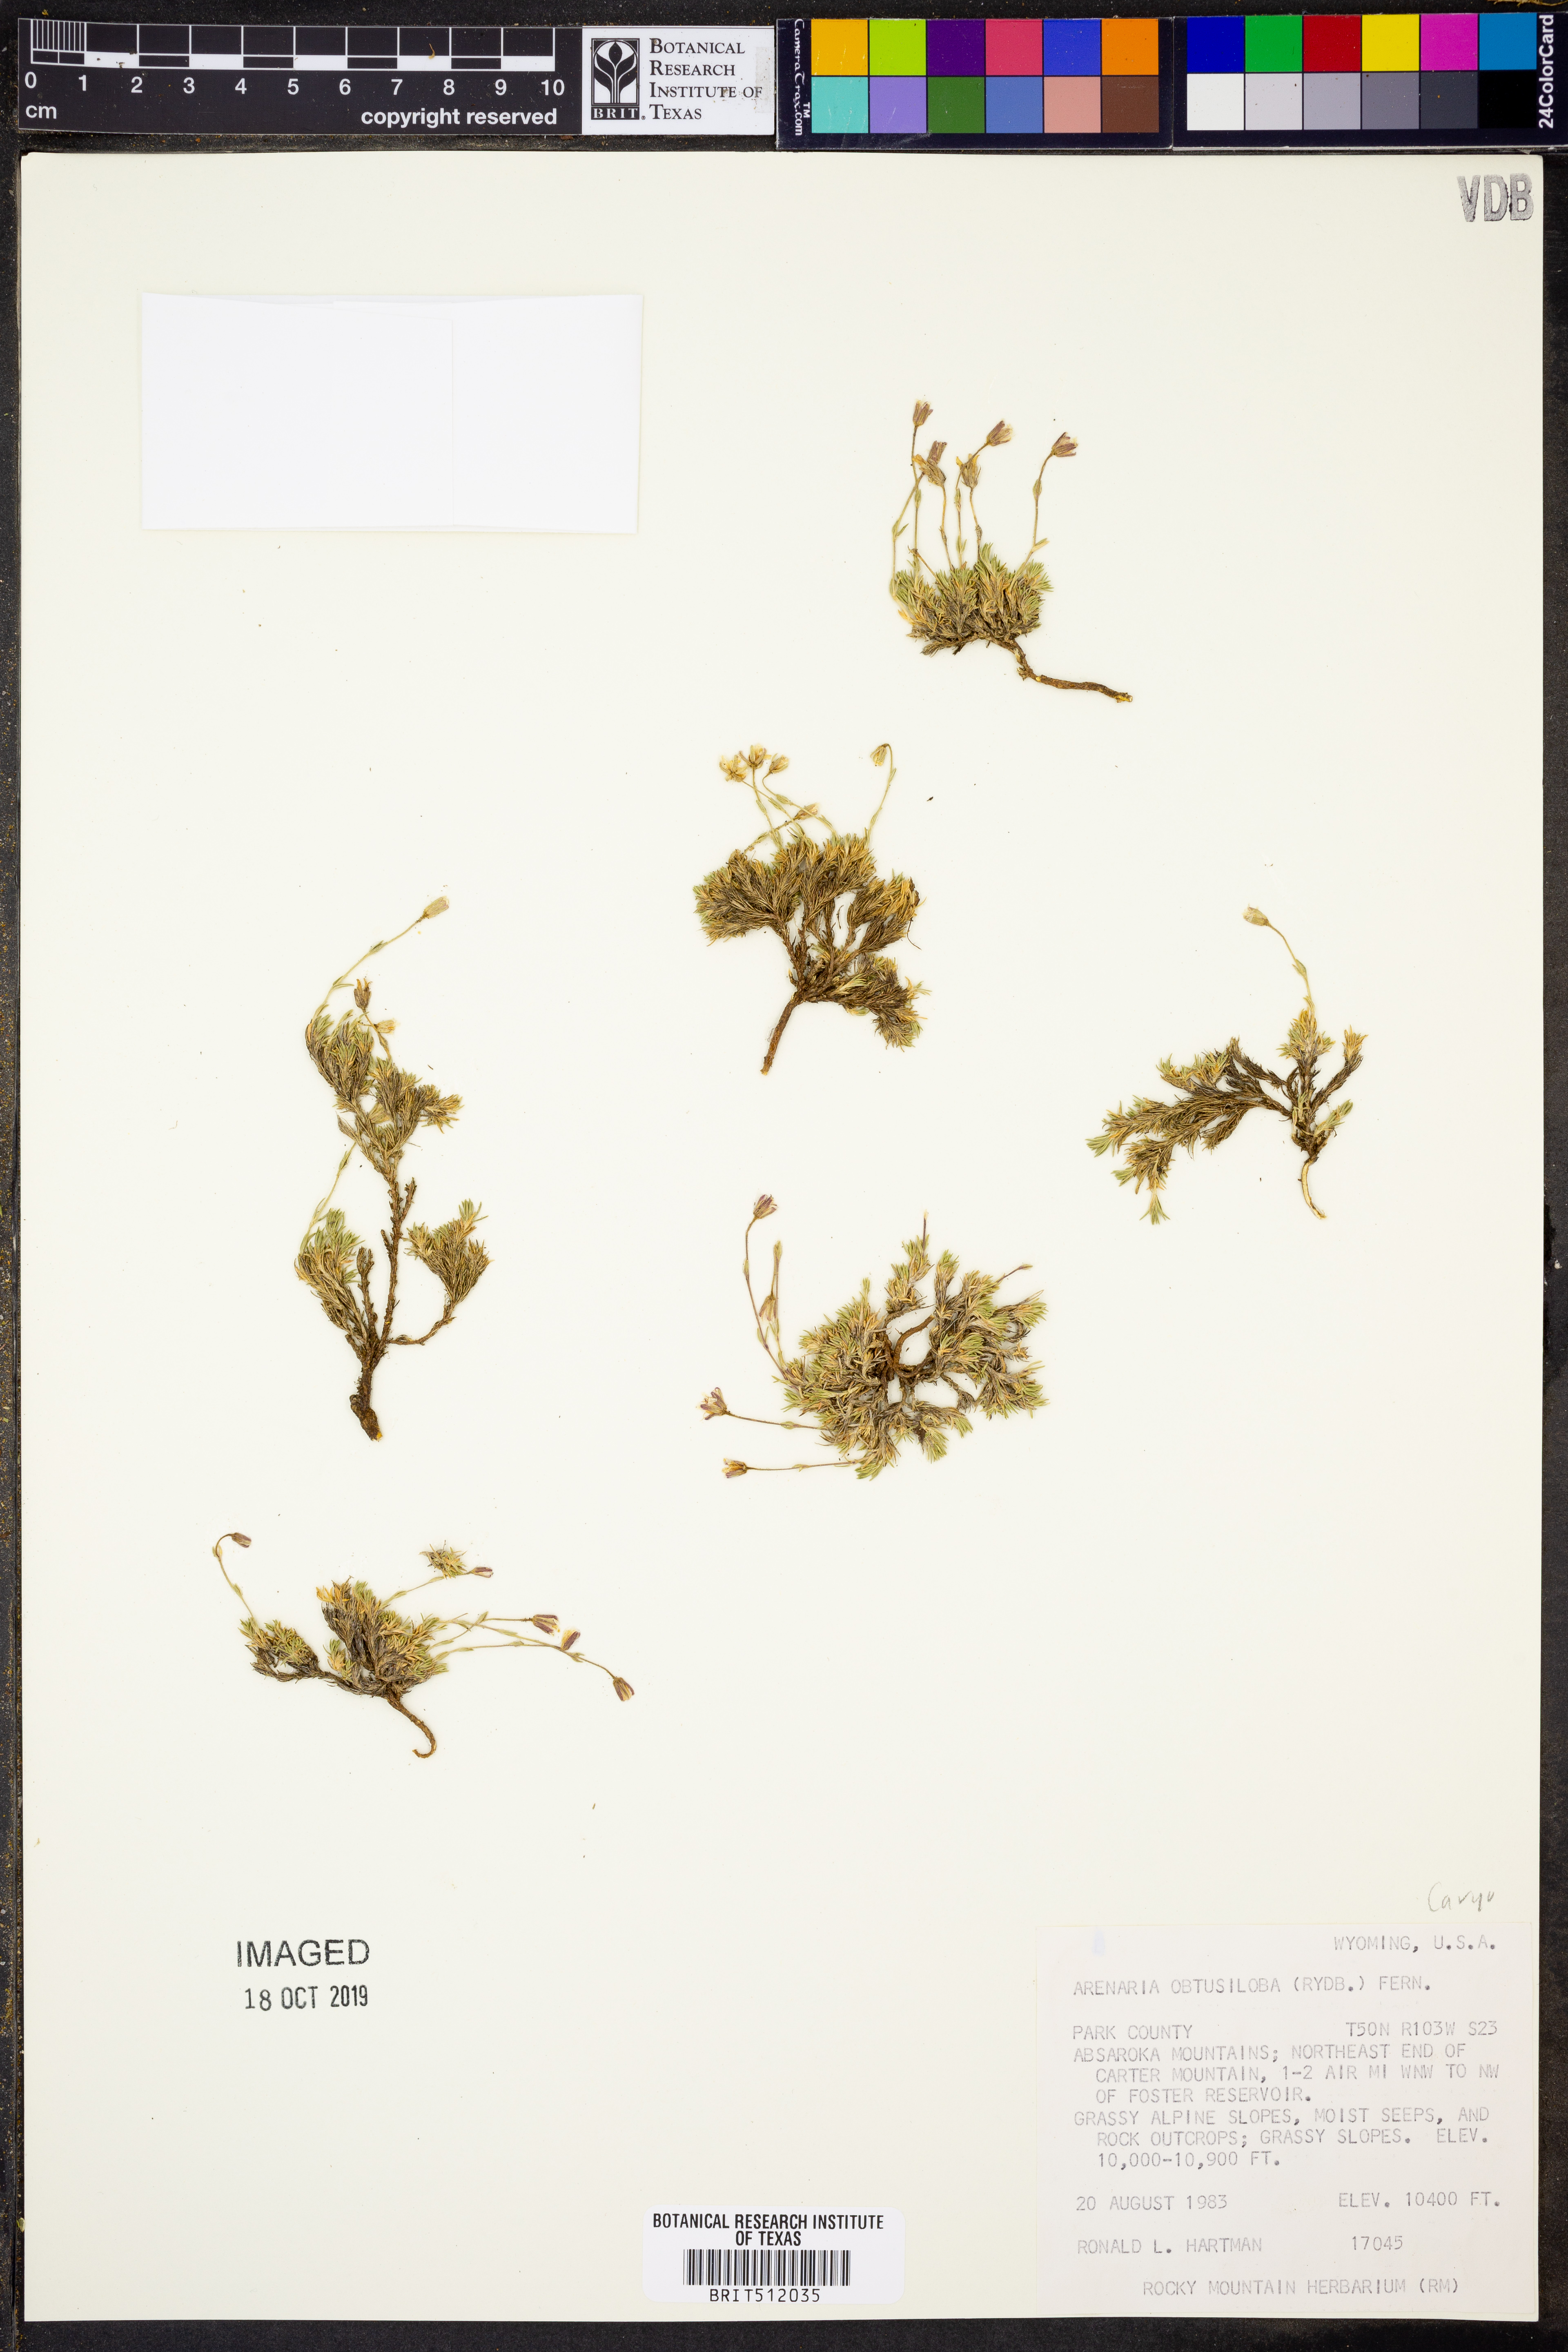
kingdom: Plantae
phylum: Tracheophyta
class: Magnoliopsida
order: Caryophyllales
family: Caryophyllaceae
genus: Cherleria
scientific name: Cherleria obtusiloba
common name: Alpine stitchwort
